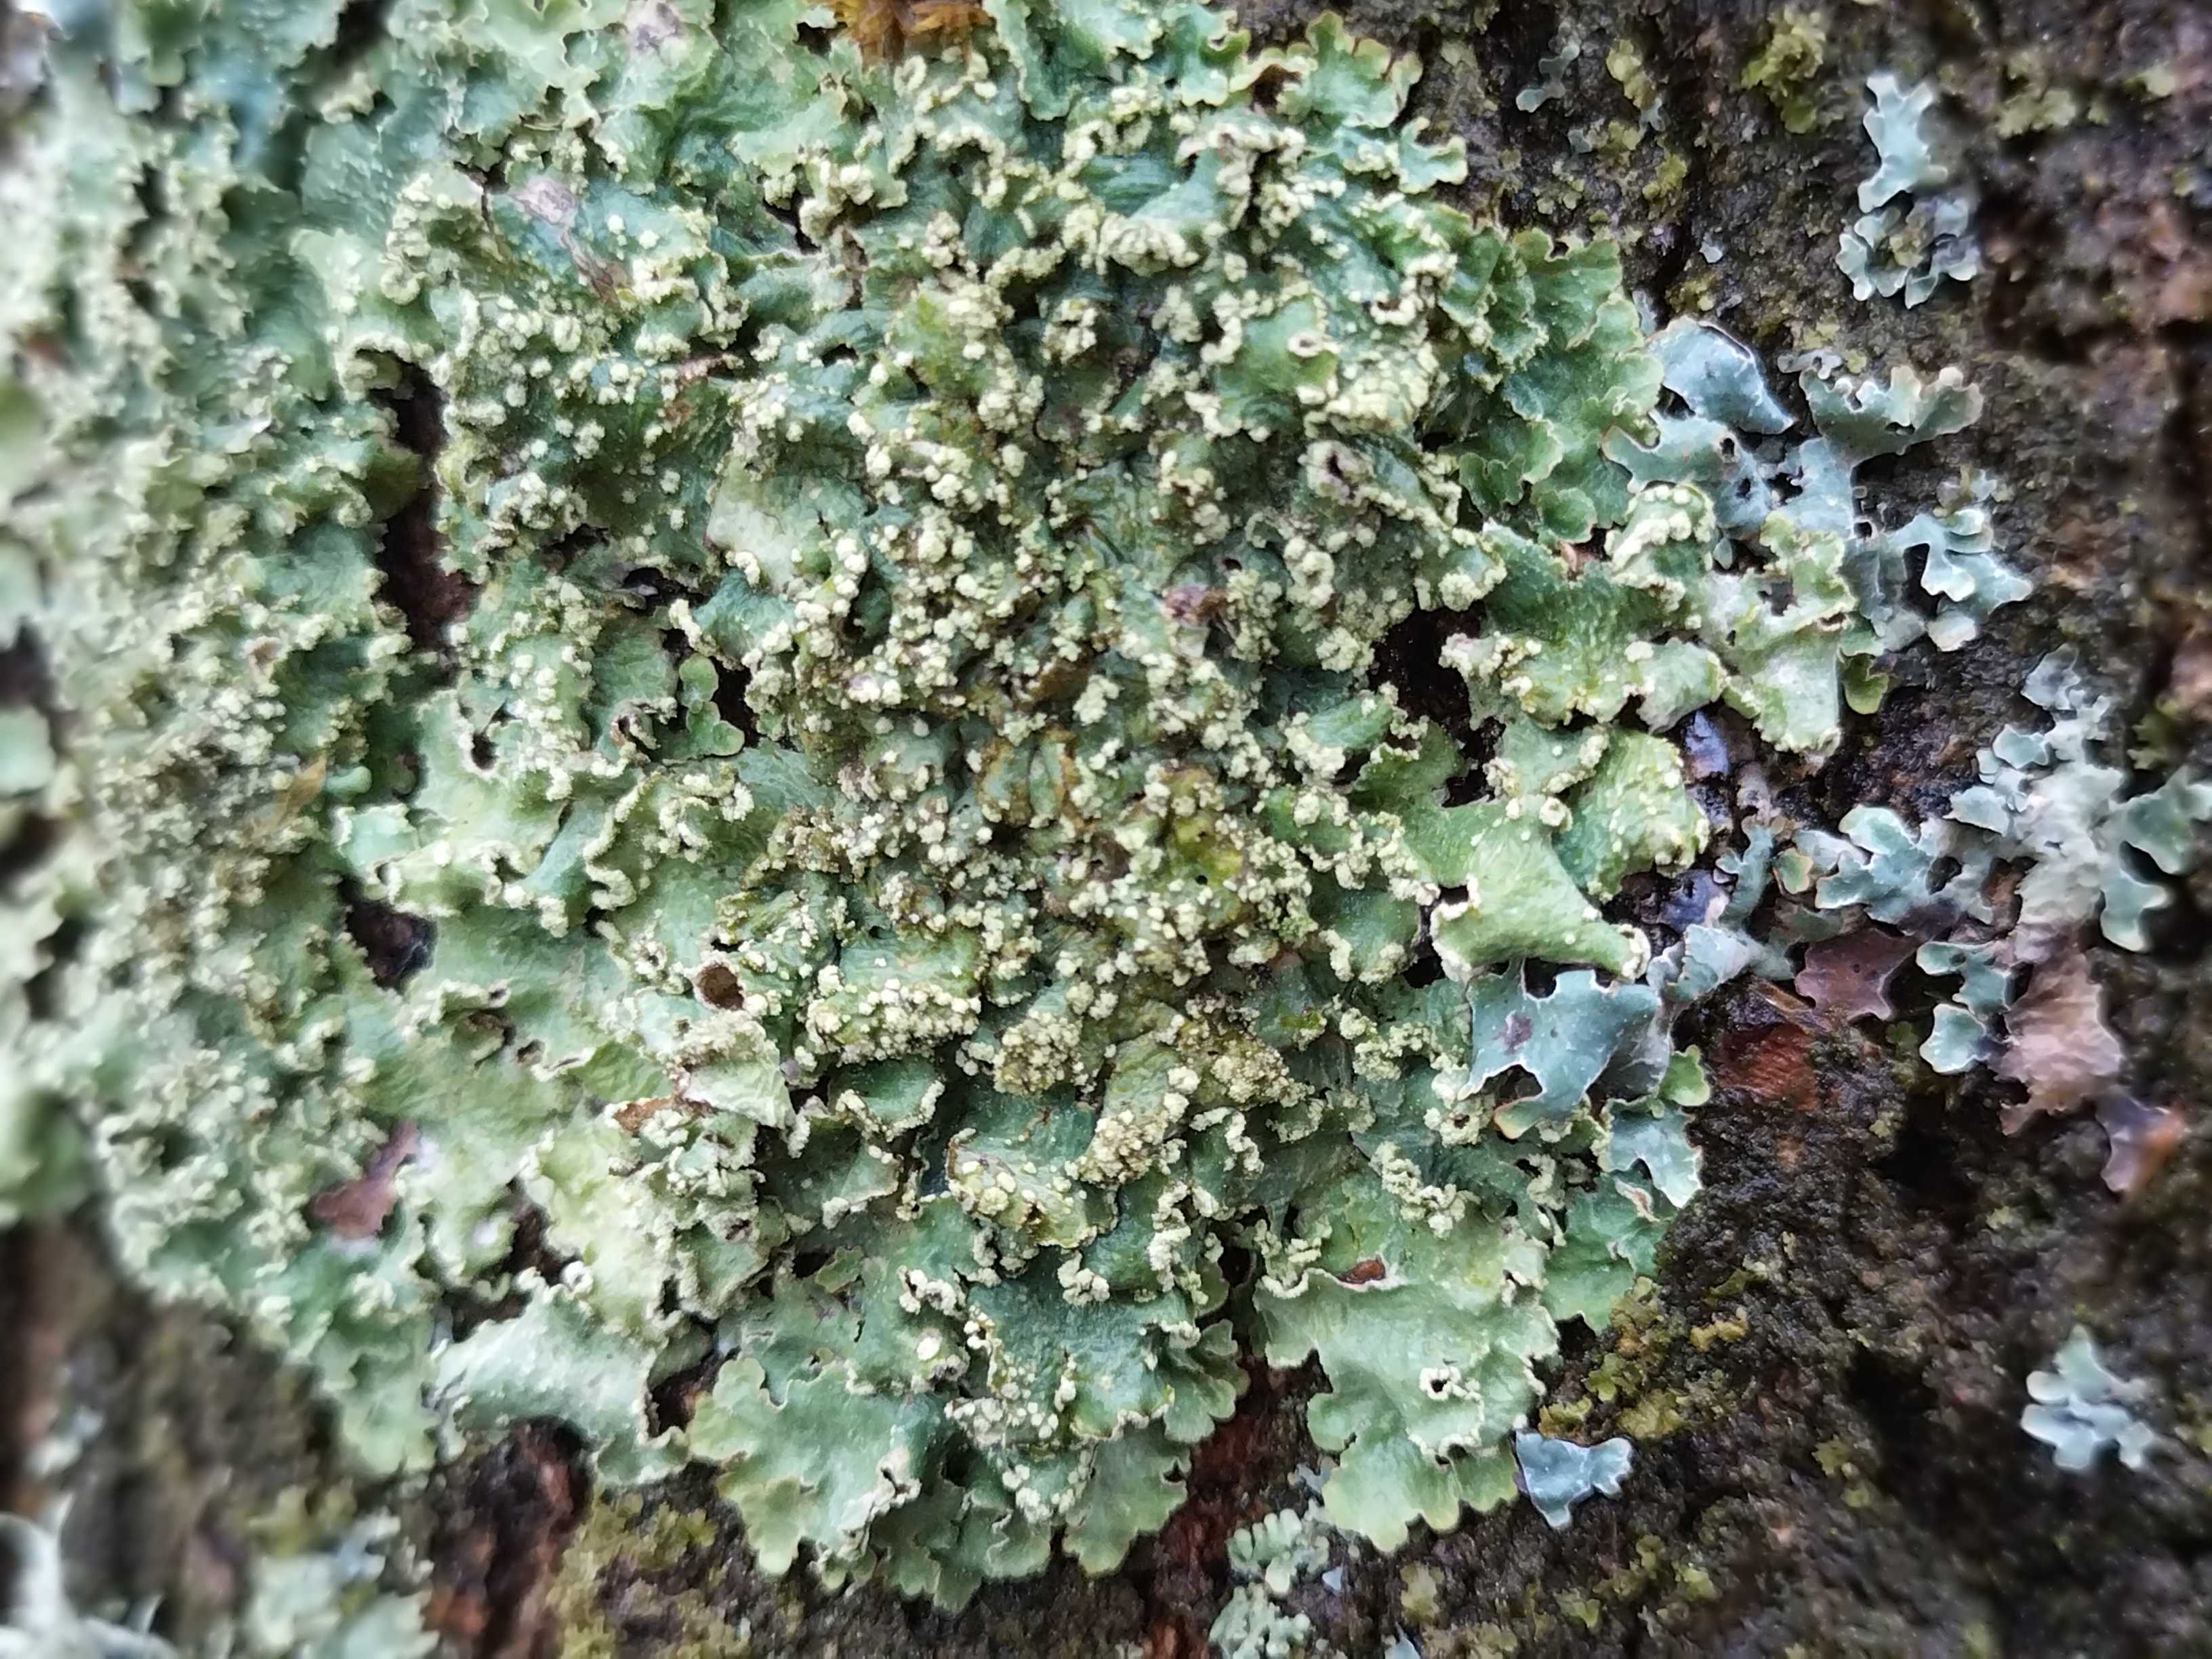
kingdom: Fungi
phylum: Ascomycota
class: Lecanoromycetes
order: Lecanorales
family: Parmeliaceae
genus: Punctelia
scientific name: Punctelia jeckeri
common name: randstøvet skållav
